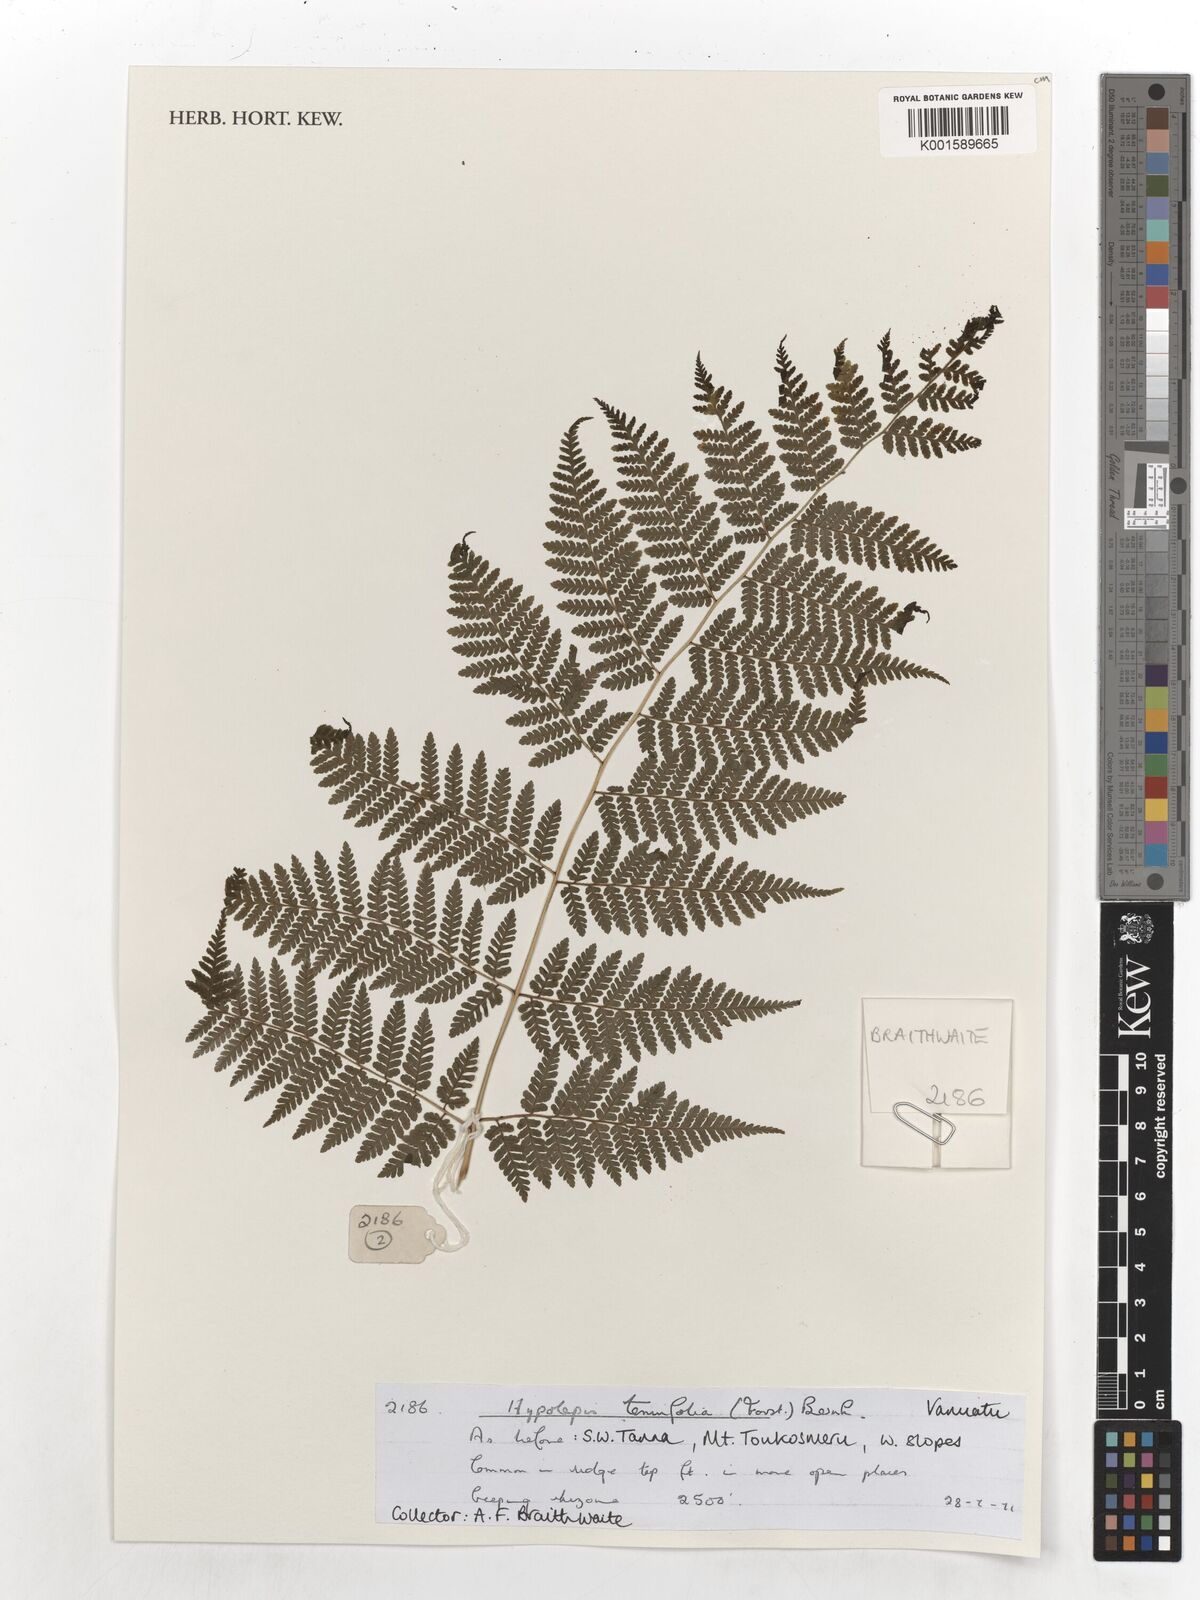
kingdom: Plantae
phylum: Tracheophyta
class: Polypodiopsida
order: Polypodiales
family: Dennstaedtiaceae
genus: Hypolepis
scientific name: Hypolepis tenuifolia
